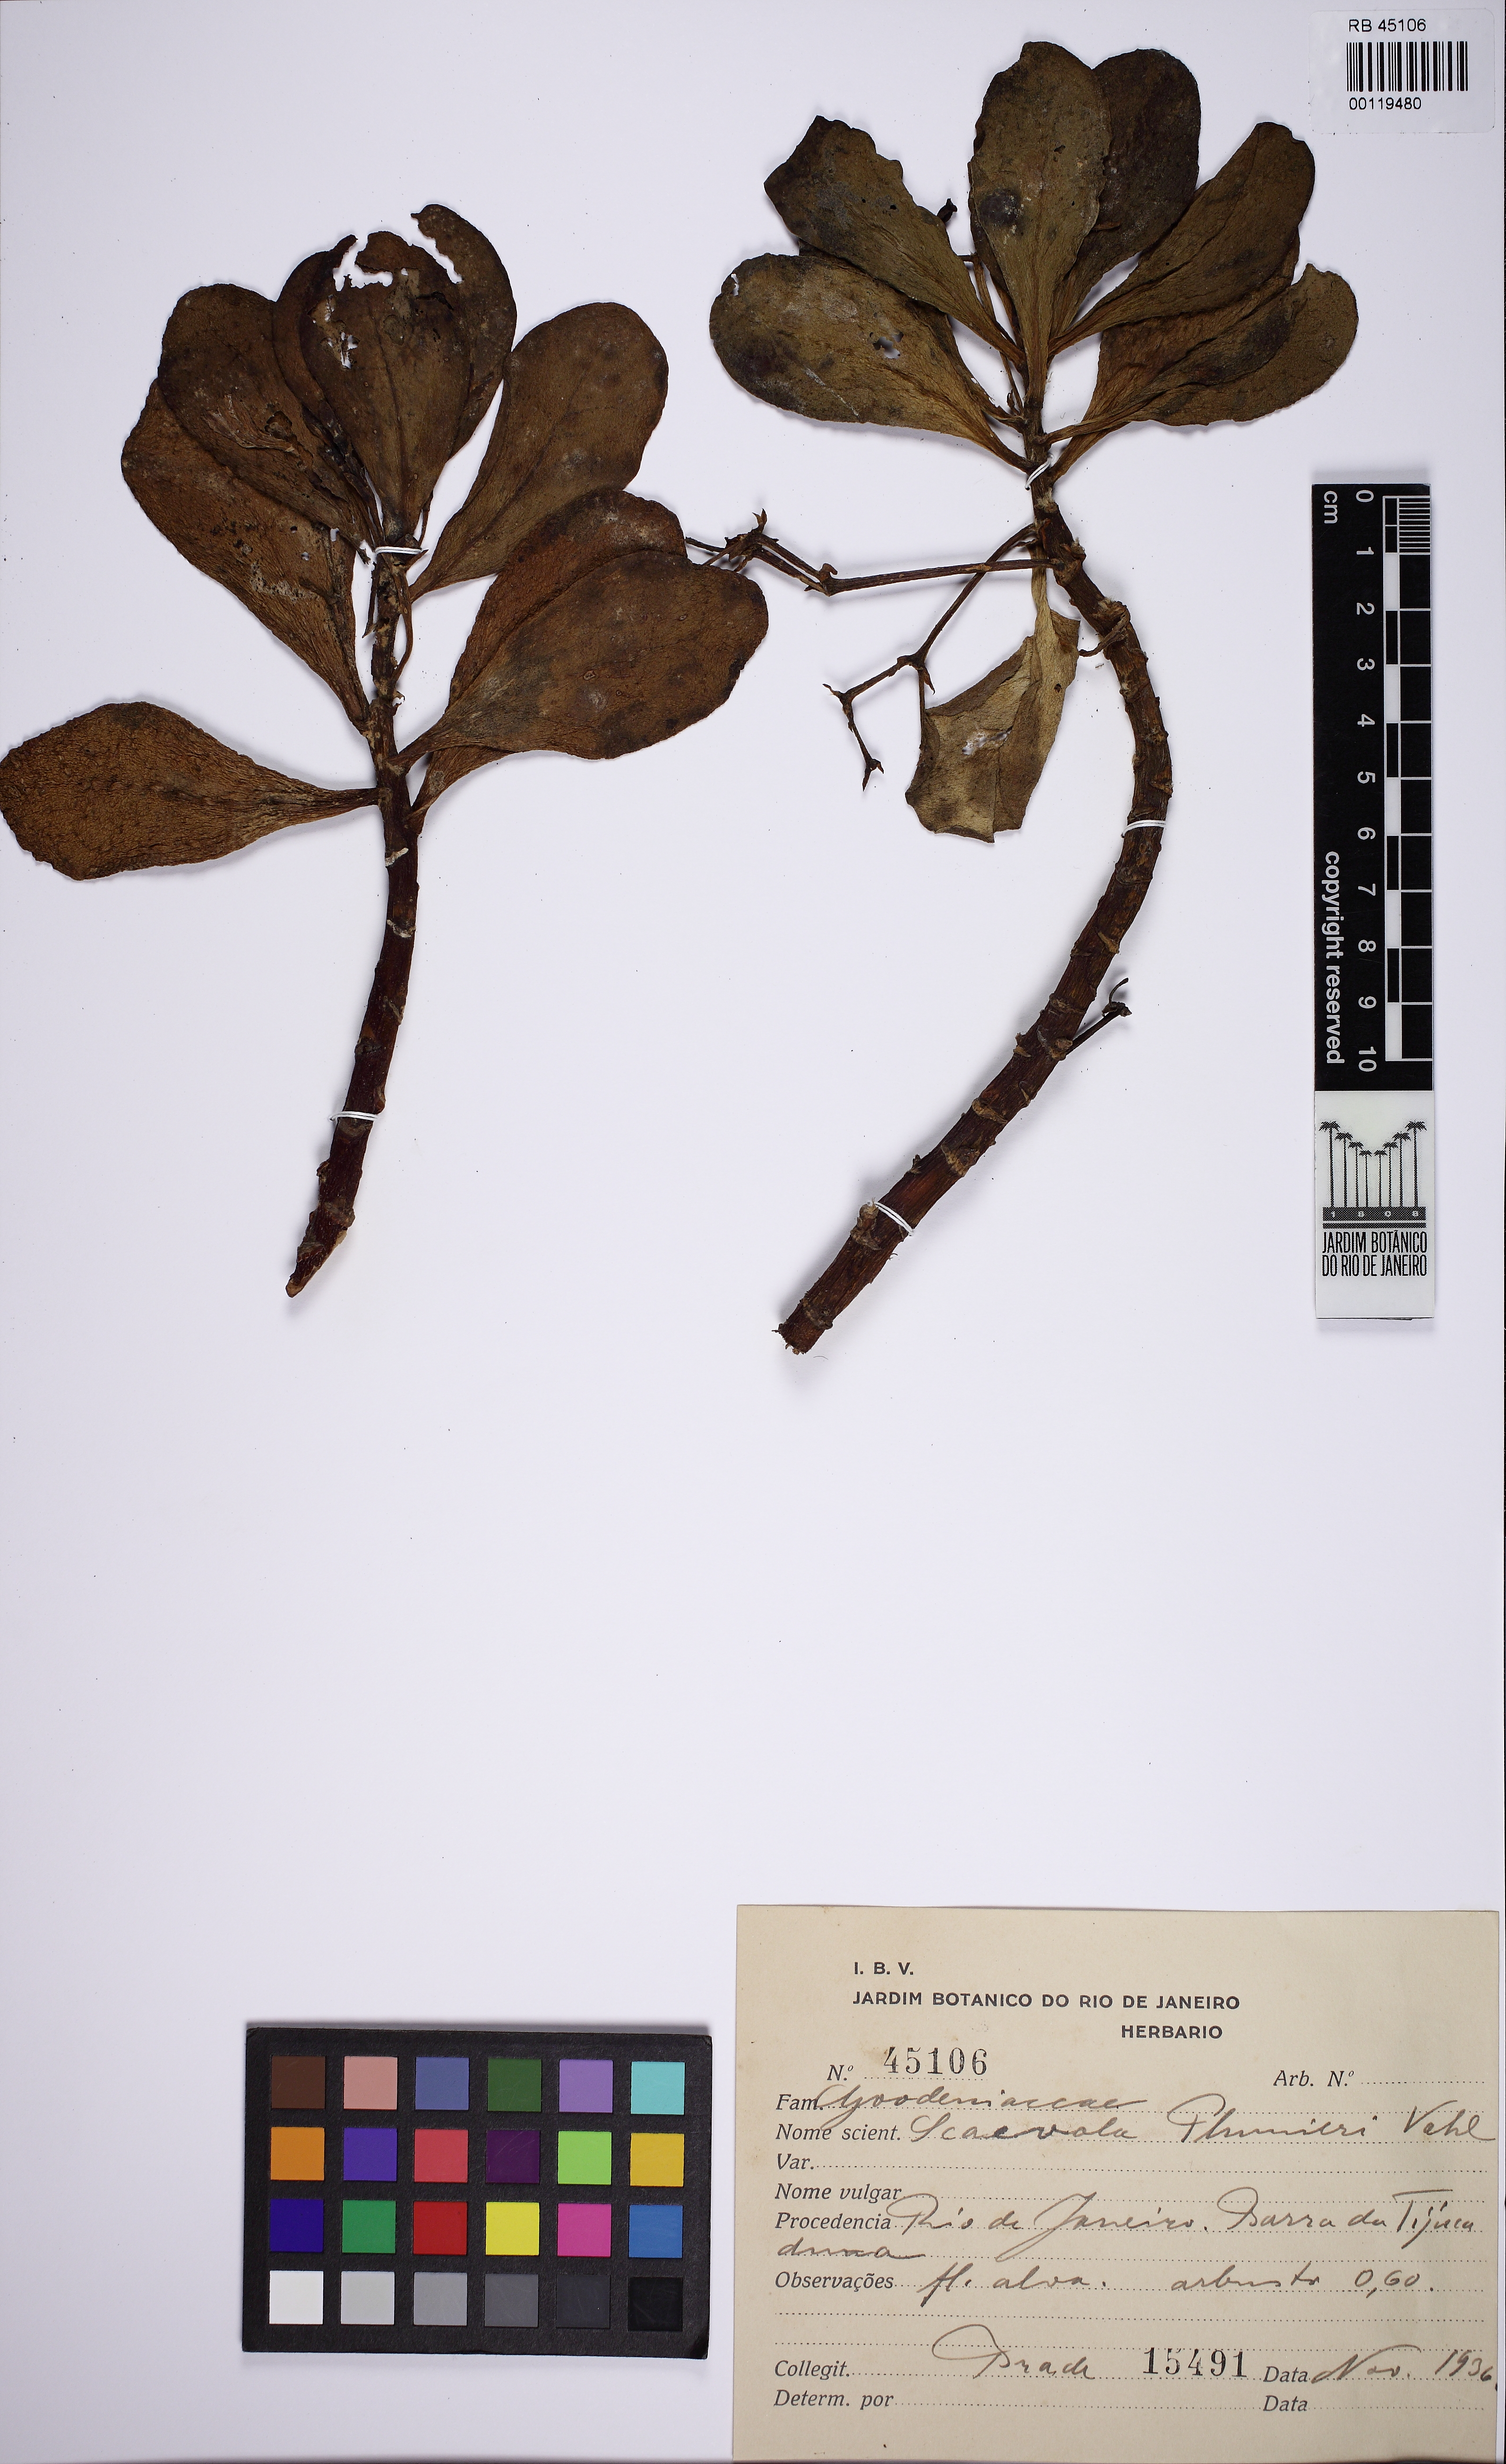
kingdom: Plantae
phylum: Tracheophyta
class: Magnoliopsida
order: Asterales
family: Goodeniaceae
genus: Scaevola
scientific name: Scaevola plumieri
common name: Gull feed
